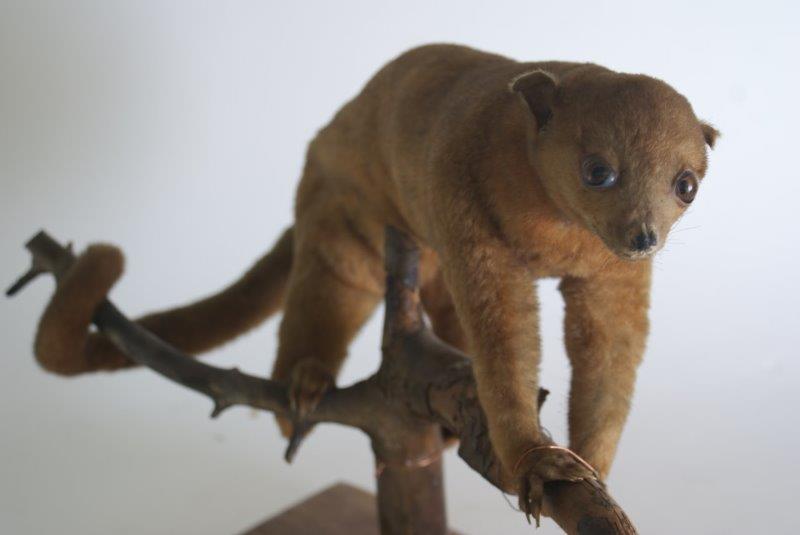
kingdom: Animalia
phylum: Chordata
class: Mammalia
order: Diprotodontia
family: Phalangeridae
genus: Trichosurus
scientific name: Trichosurus vulpecula
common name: Common Brushtail
